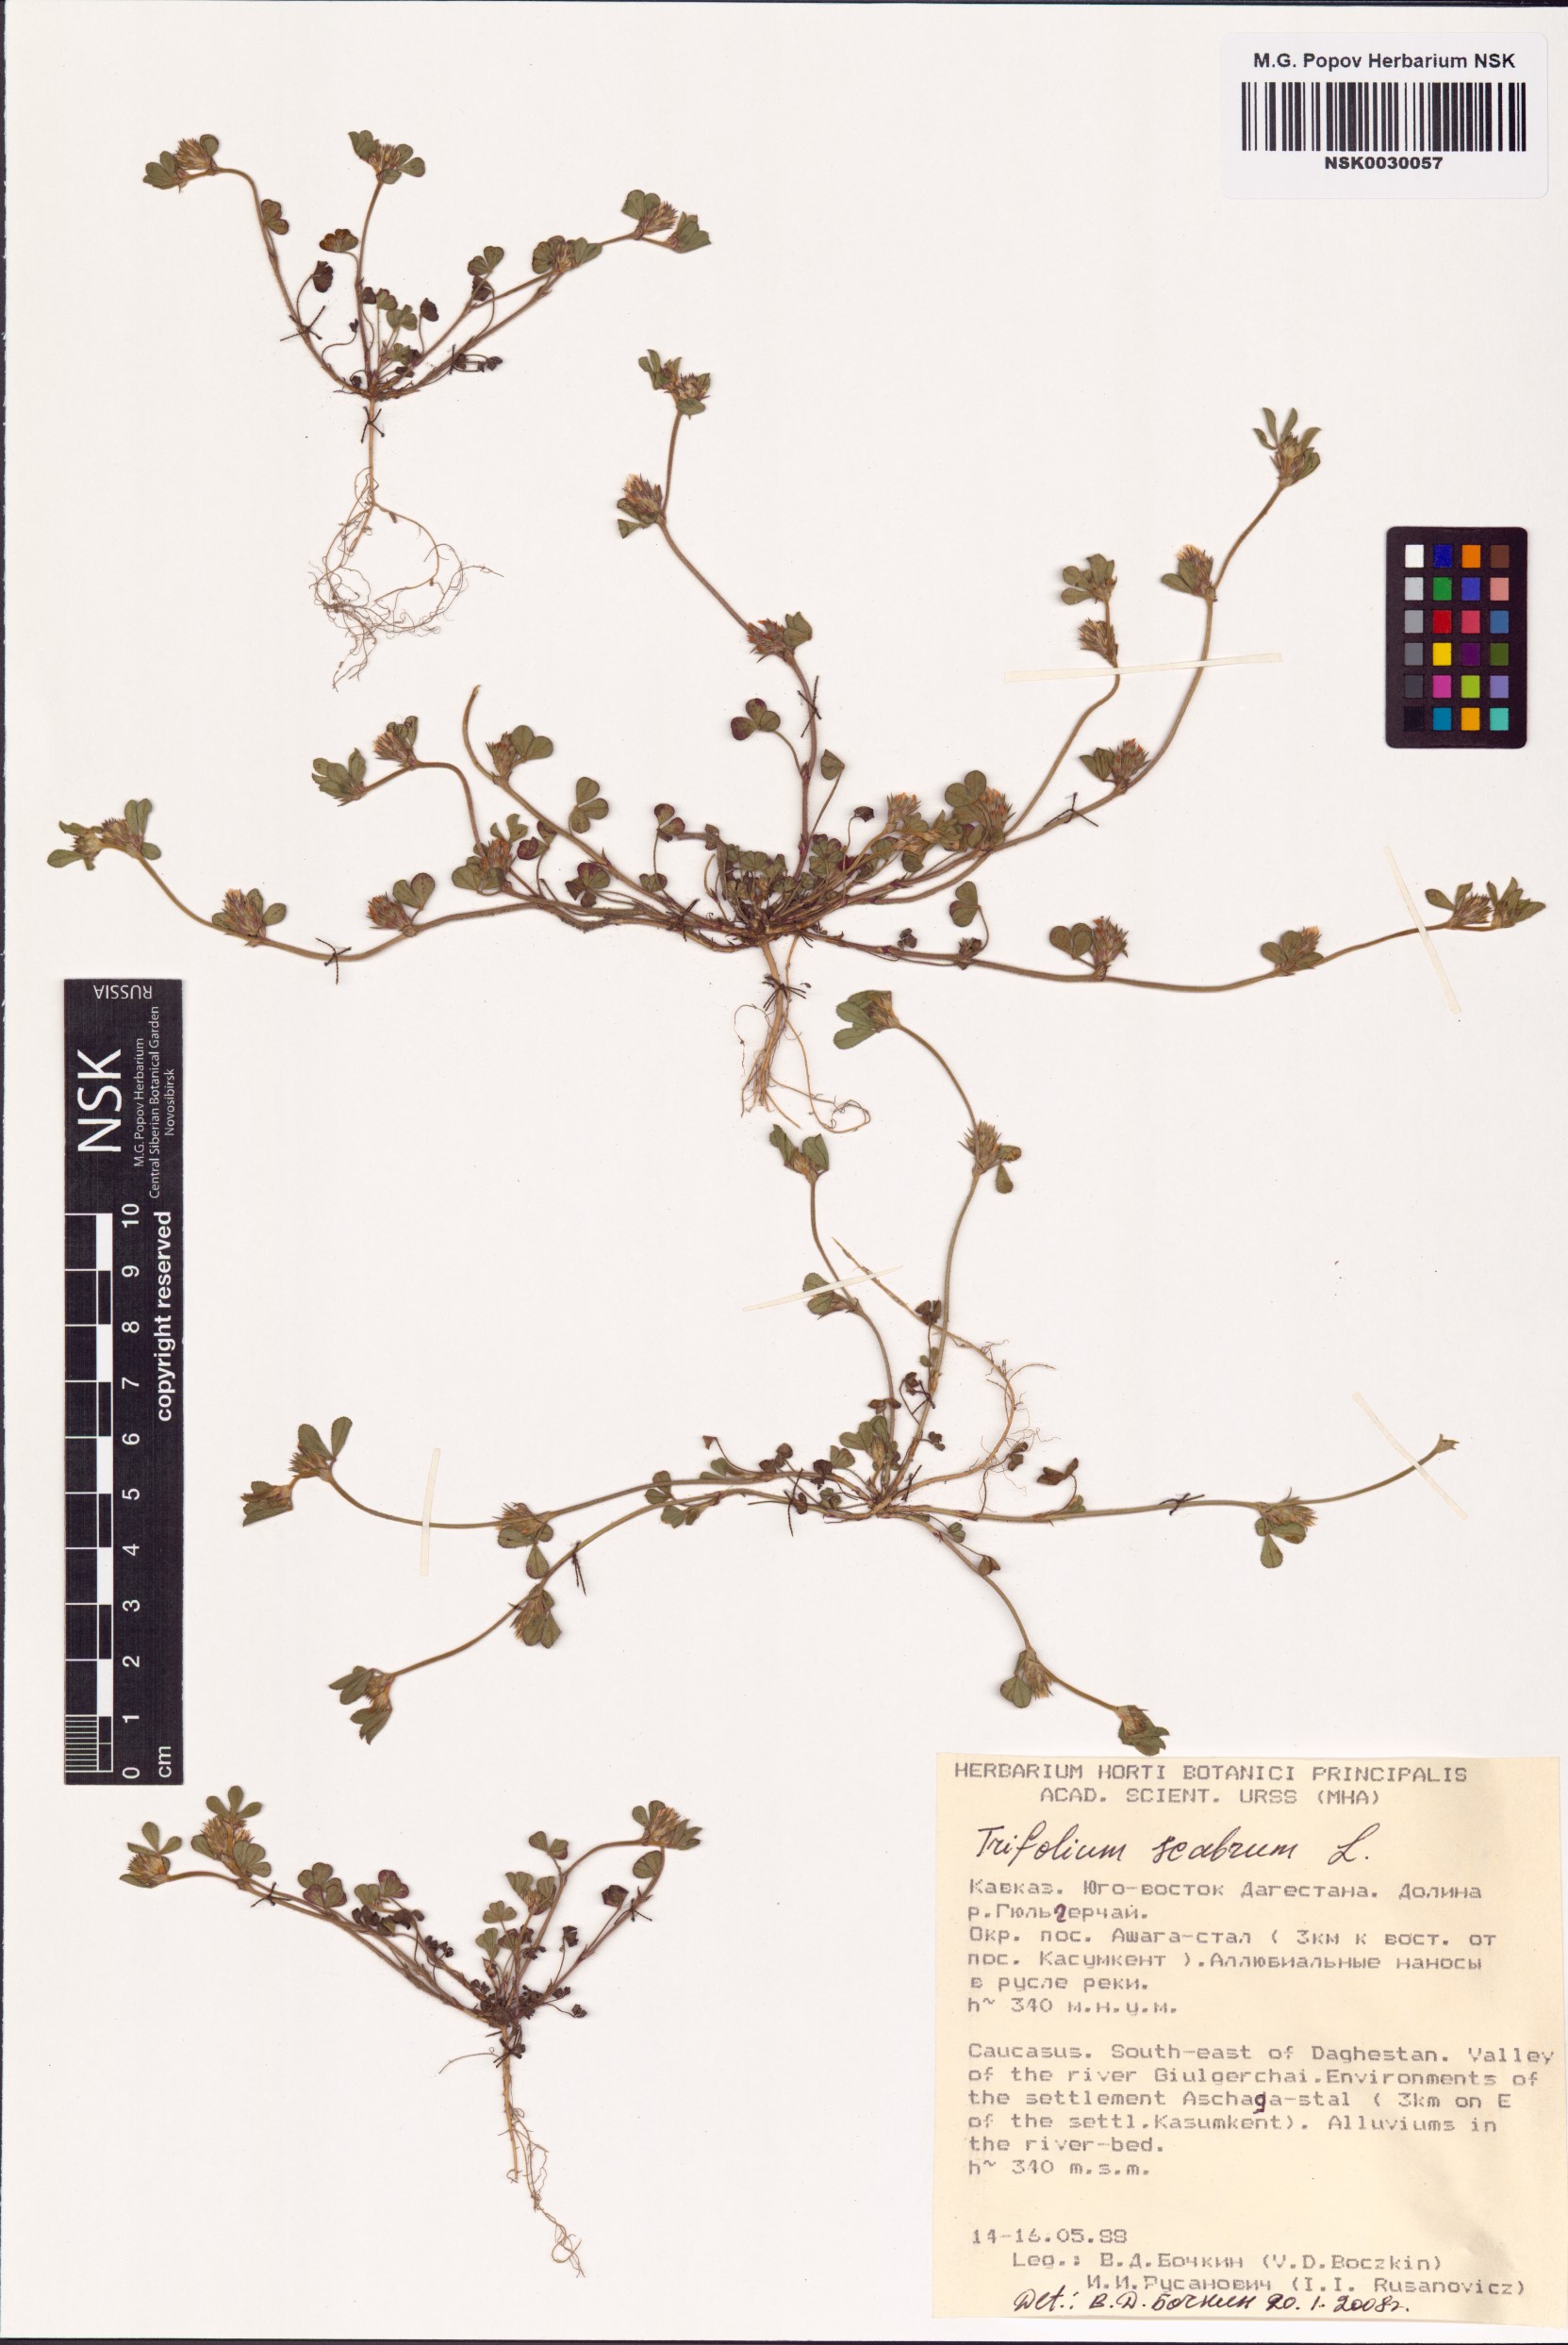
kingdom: Plantae
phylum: Tracheophyta
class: Magnoliopsida
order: Fabales
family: Fabaceae
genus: Trifolium
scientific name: Trifolium scabrum
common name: Rough clover
